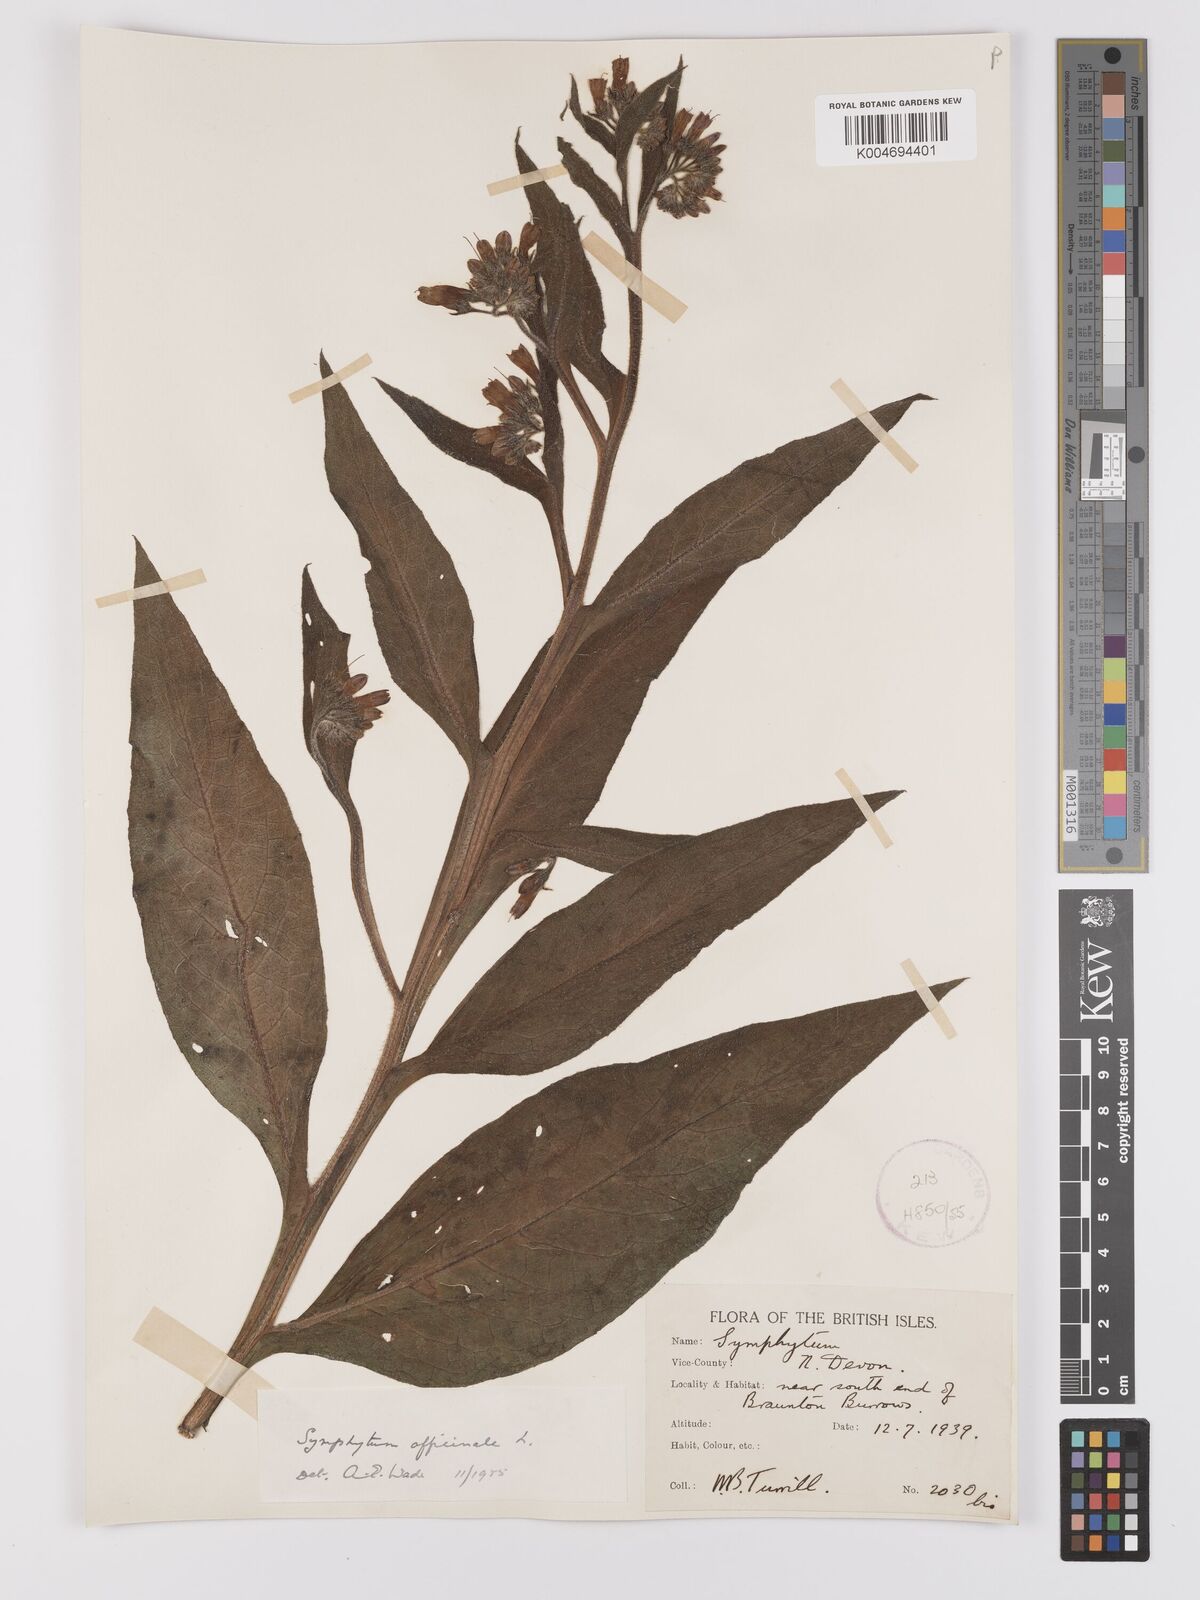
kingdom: Plantae
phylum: Tracheophyta
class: Magnoliopsida
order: Boraginales
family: Boraginaceae
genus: Symphytum
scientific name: Symphytum officinale
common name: Common comfrey
